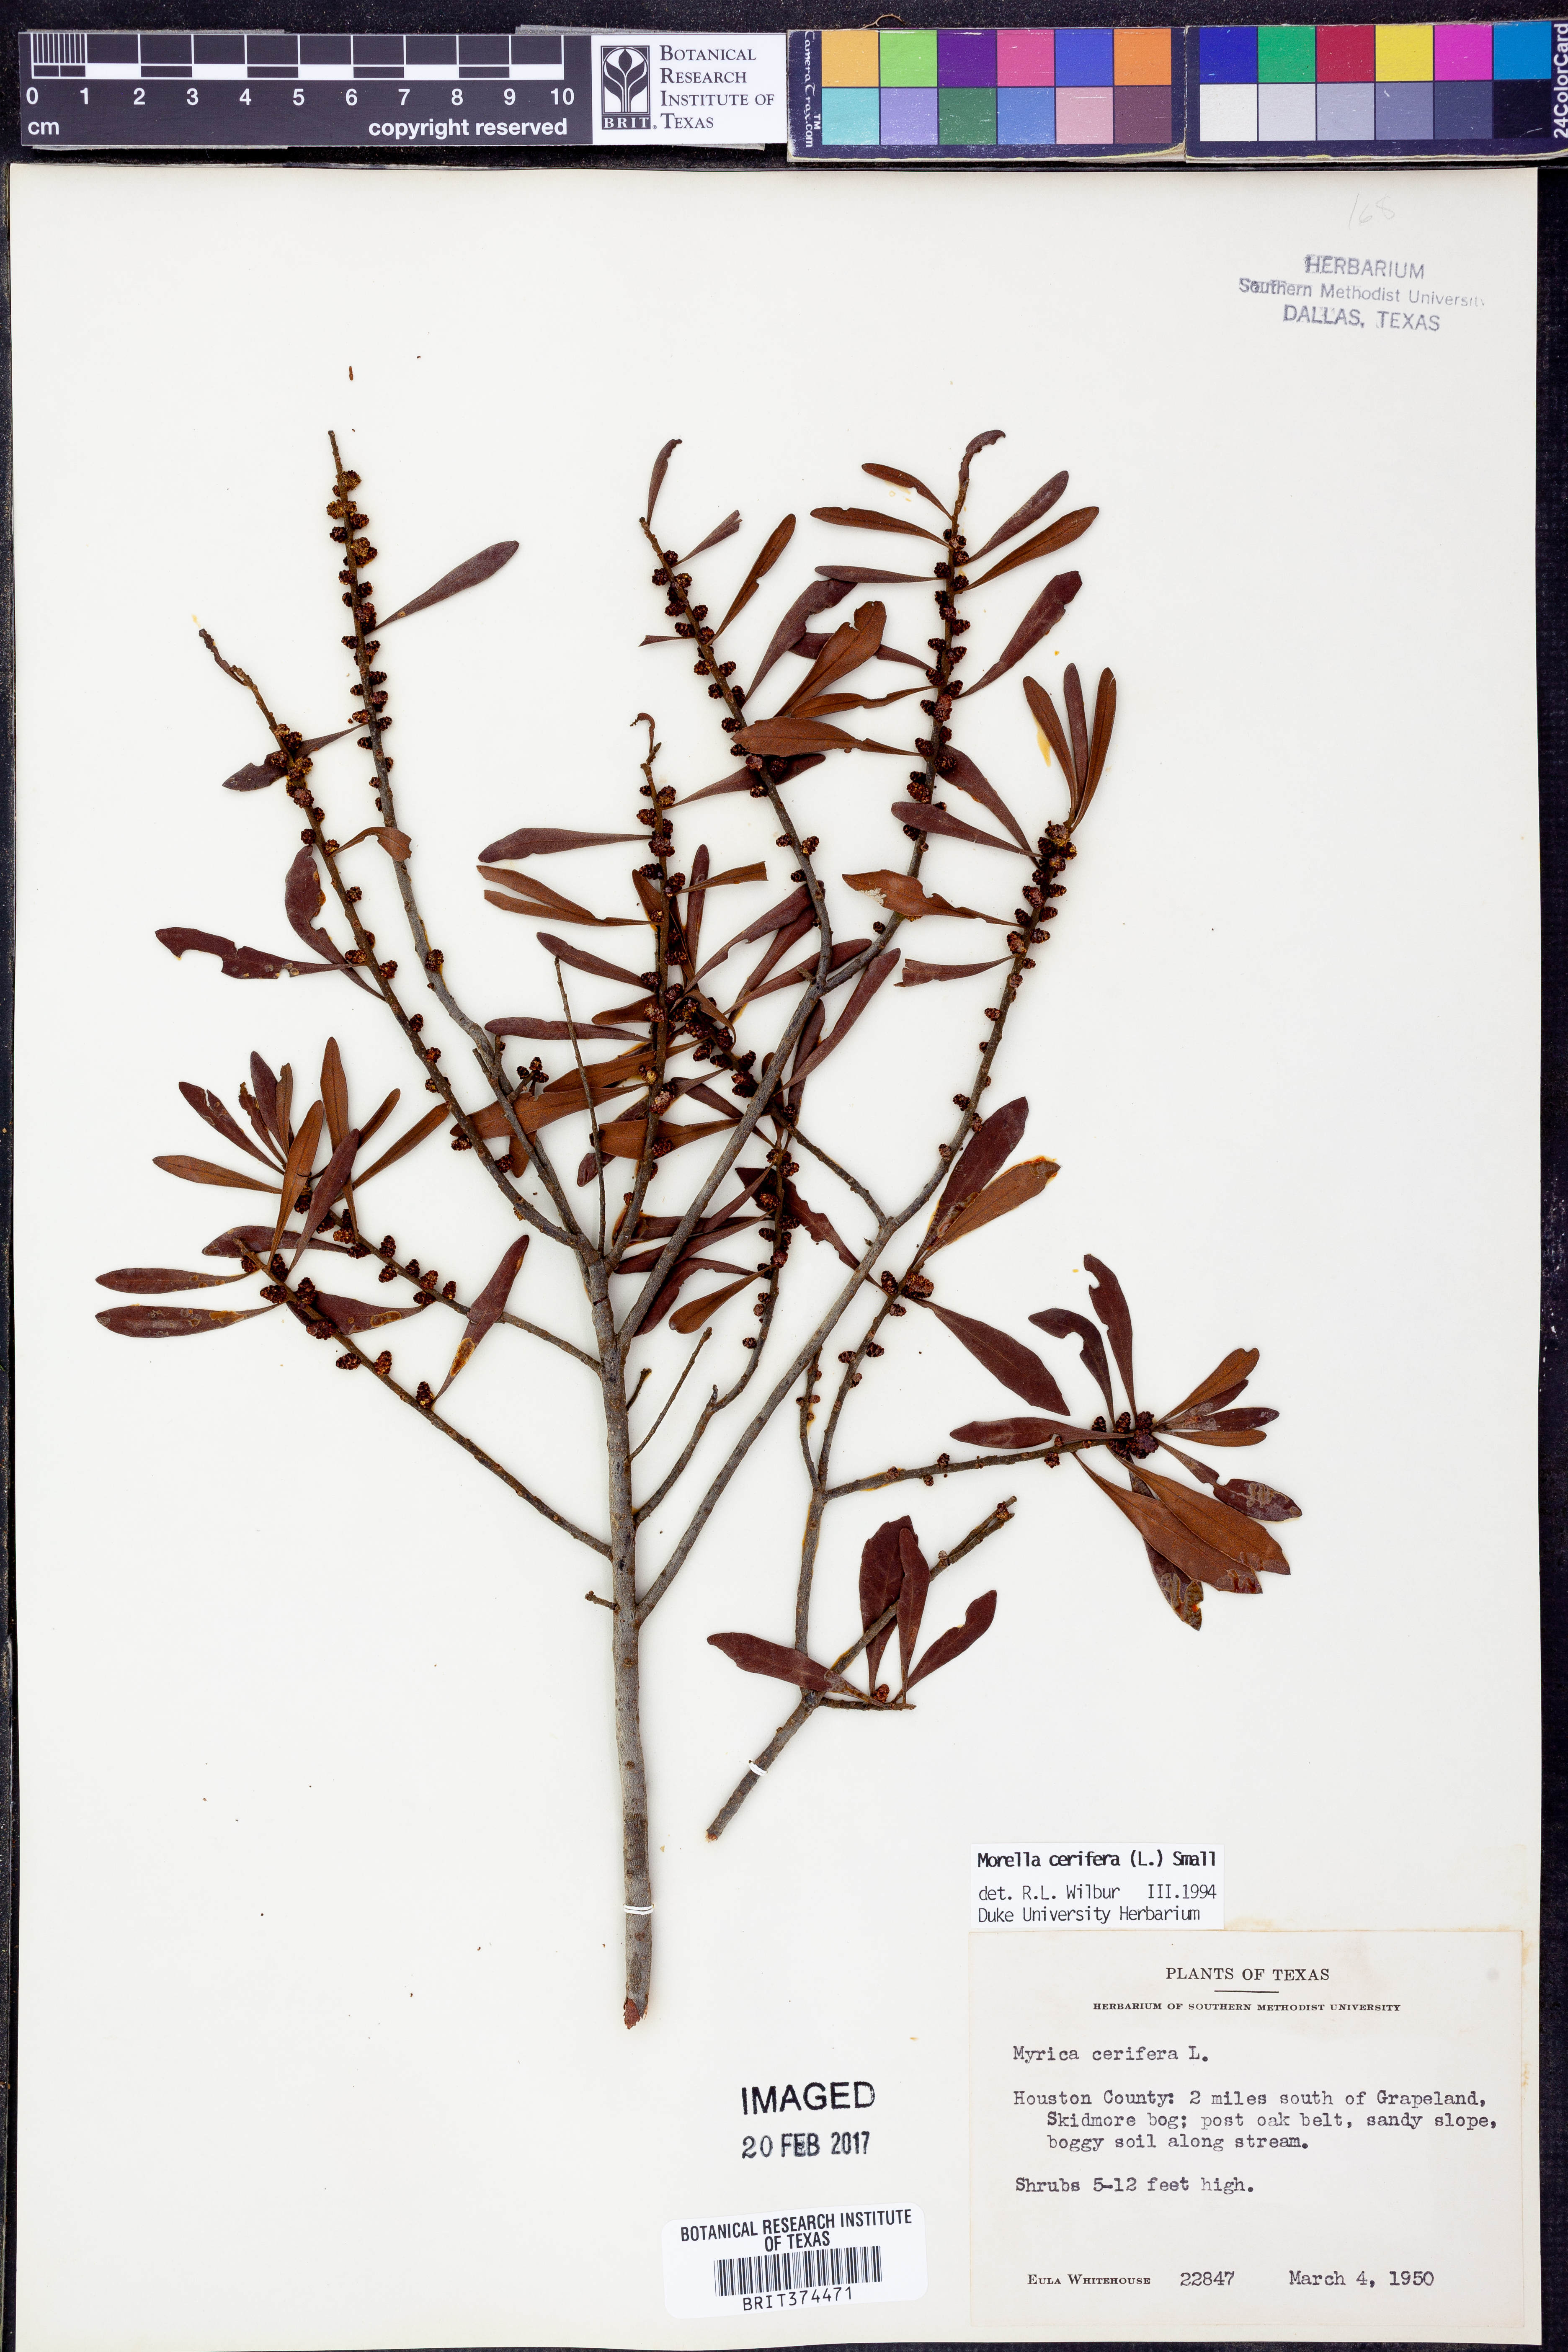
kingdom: Plantae
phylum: Tracheophyta
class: Magnoliopsida
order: Fagales
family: Myricaceae
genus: Morella
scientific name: Morella cerifera
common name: Wax myrtle
